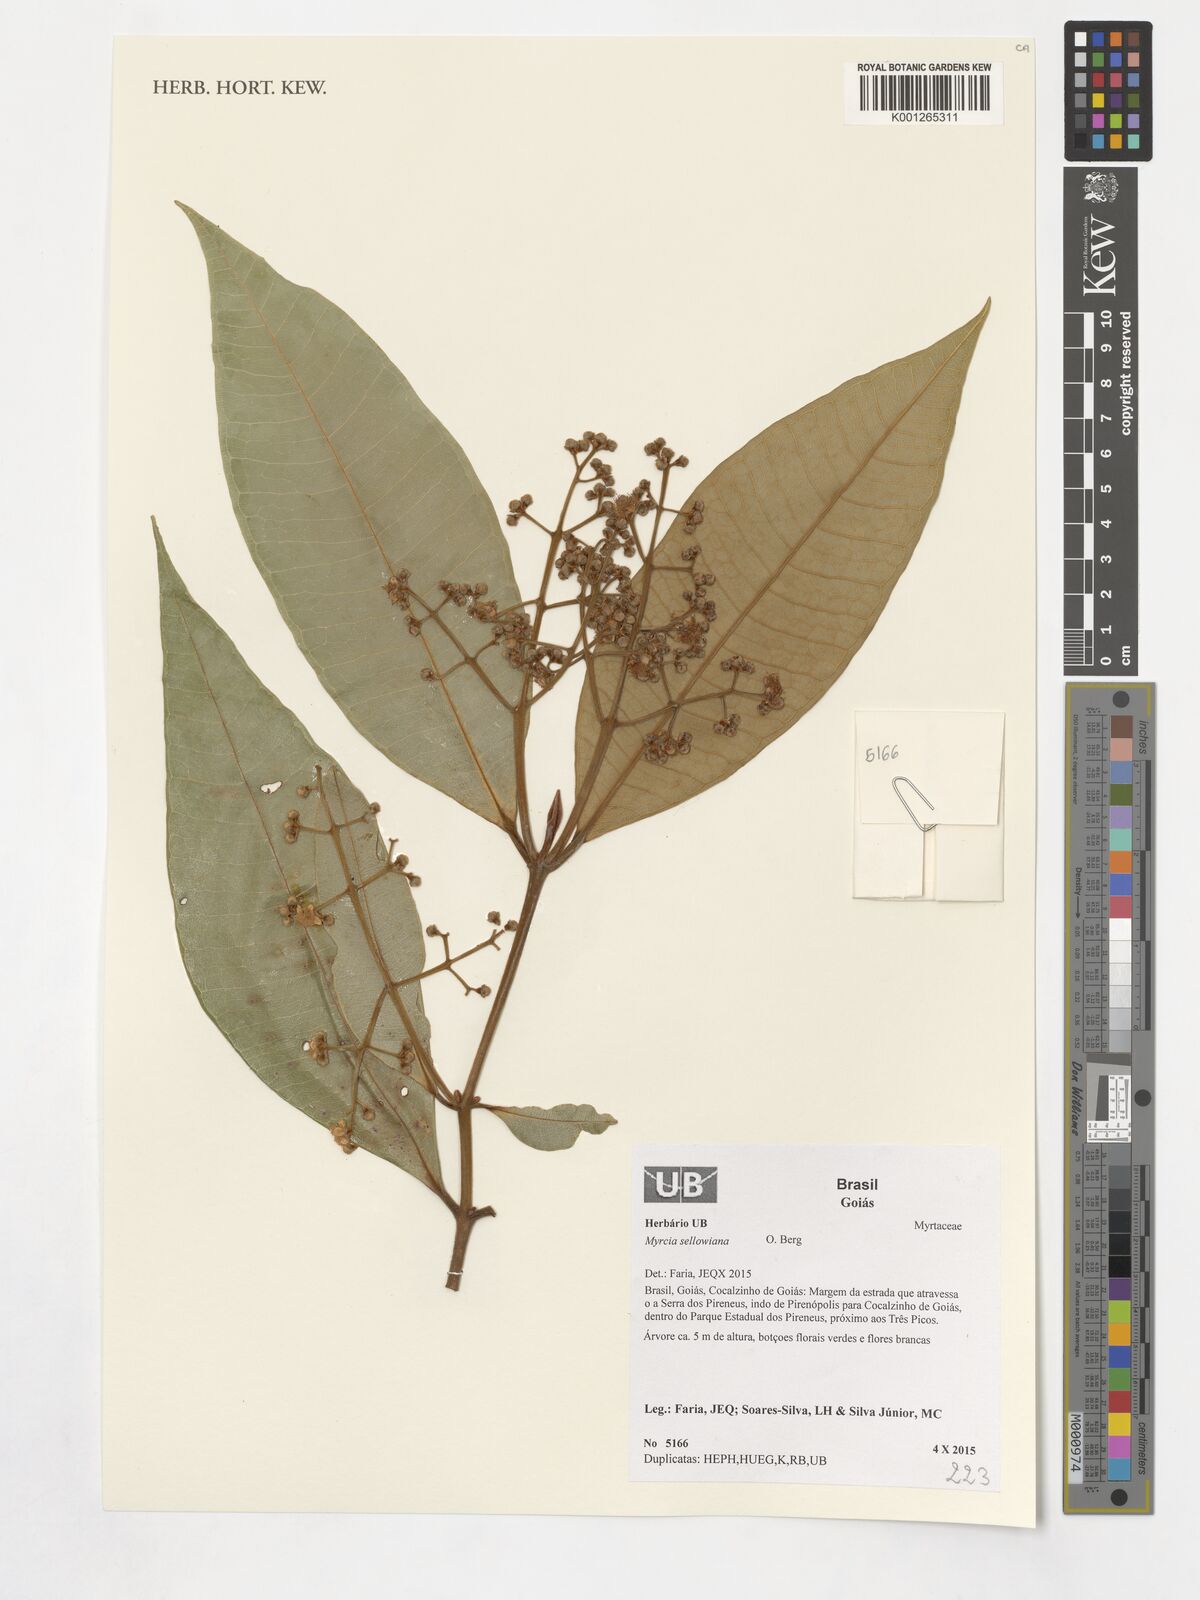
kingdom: Plantae
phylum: Tracheophyta
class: Magnoliopsida
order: Myrtales
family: Myrtaceae
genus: Myrcia
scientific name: Myrcia splendens
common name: Surinam cherry
